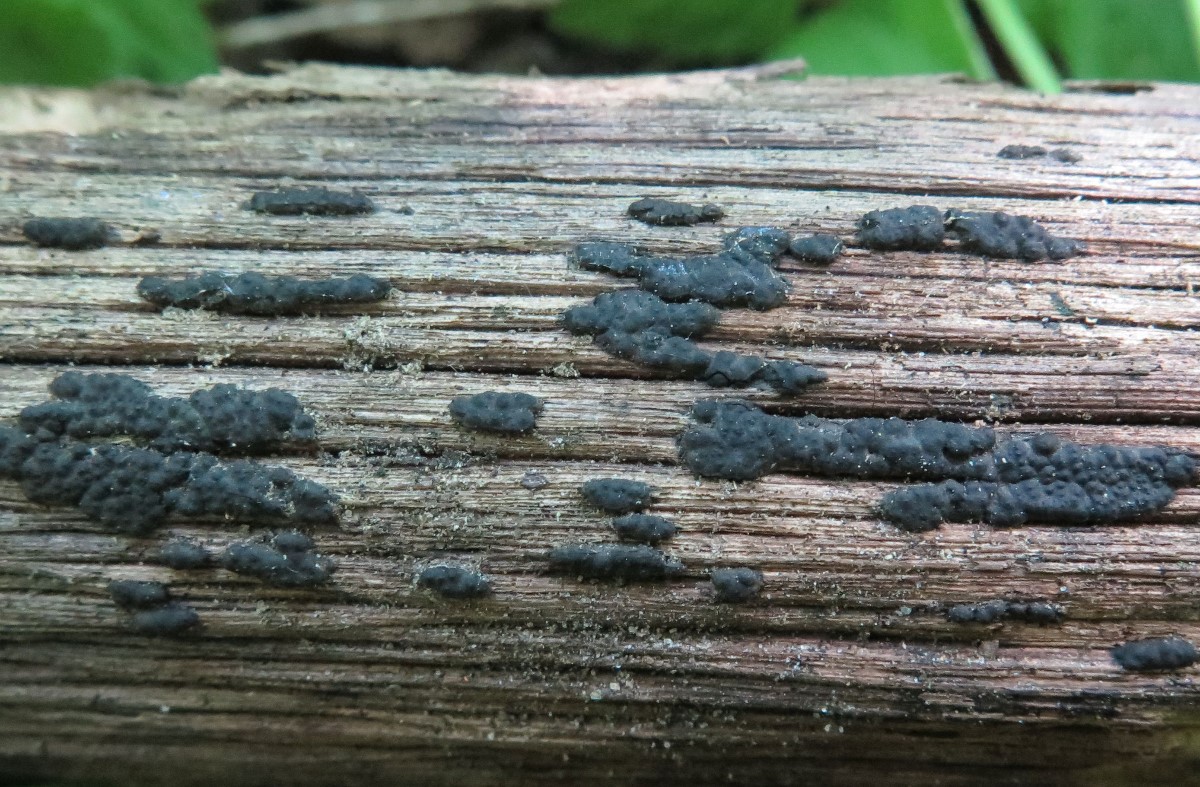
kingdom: Fungi
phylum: Ascomycota
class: Sordariomycetes
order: Xylariales
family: Xylariaceae
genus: Nemania
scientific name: Nemania serpens
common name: almindelig kuldyne
